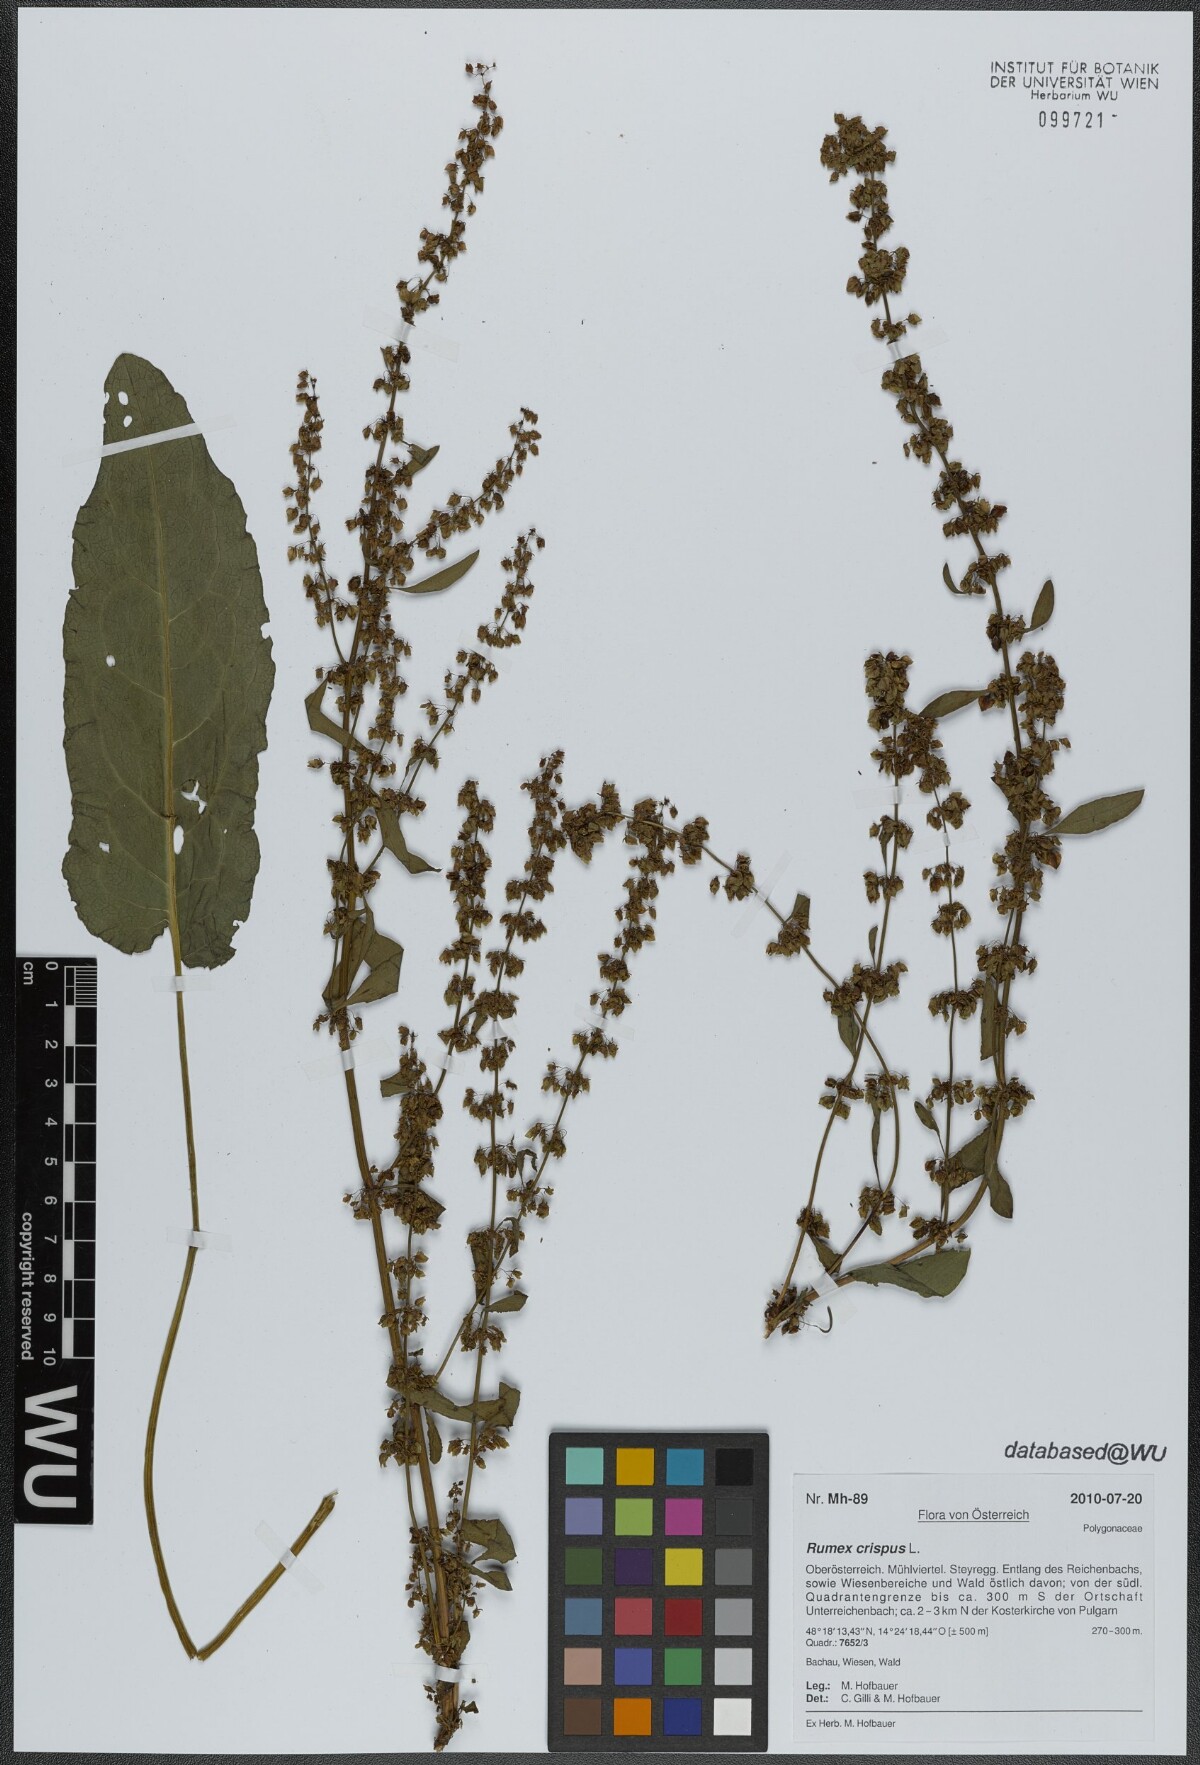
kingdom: Plantae
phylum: Tracheophyta
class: Magnoliopsida
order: Caryophyllales
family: Polygonaceae
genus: Rumex
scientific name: Rumex crispus
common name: Curled dock
